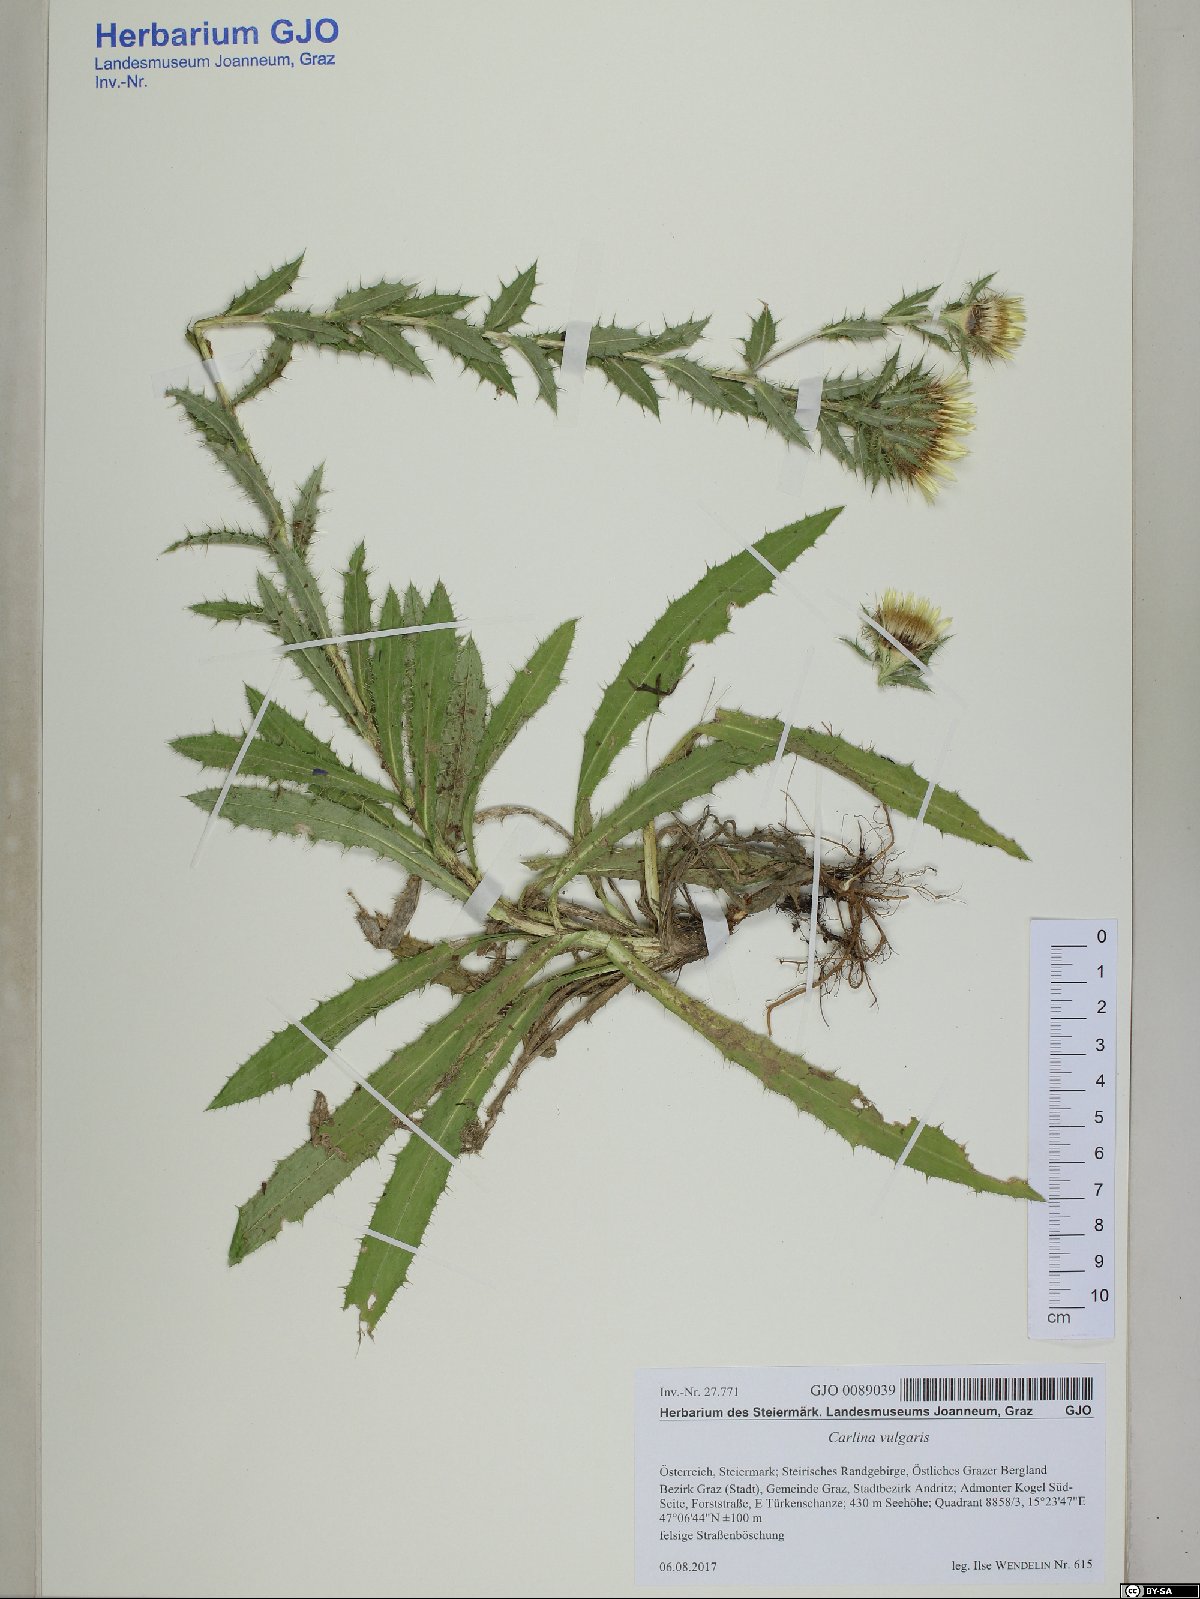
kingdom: Plantae
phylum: Tracheophyta
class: Magnoliopsida
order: Asterales
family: Asteraceae
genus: Carlina
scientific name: Carlina vulgaris
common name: Carline thistle
